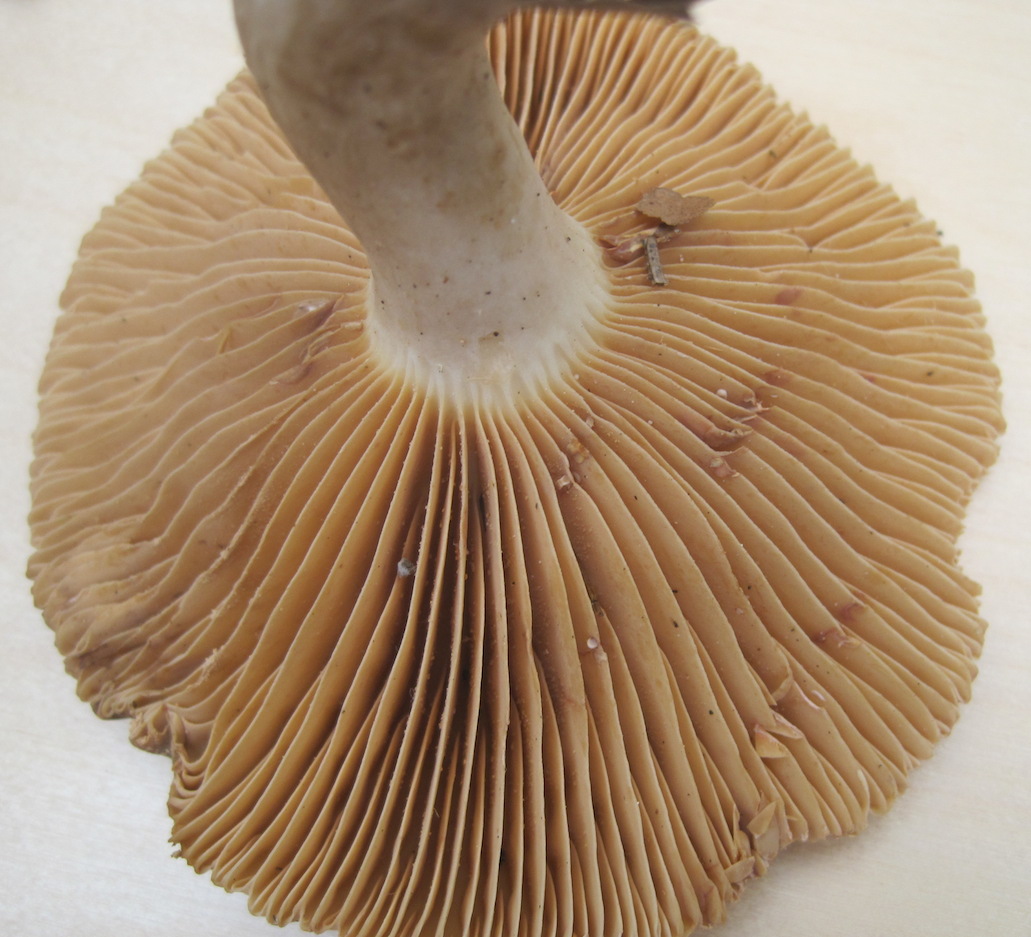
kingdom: Fungi
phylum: Basidiomycota
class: Agaricomycetes
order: Russulales
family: Russulaceae
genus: Lactarius
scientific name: Lactarius romagnesii
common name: fjernbladet mælkehat
